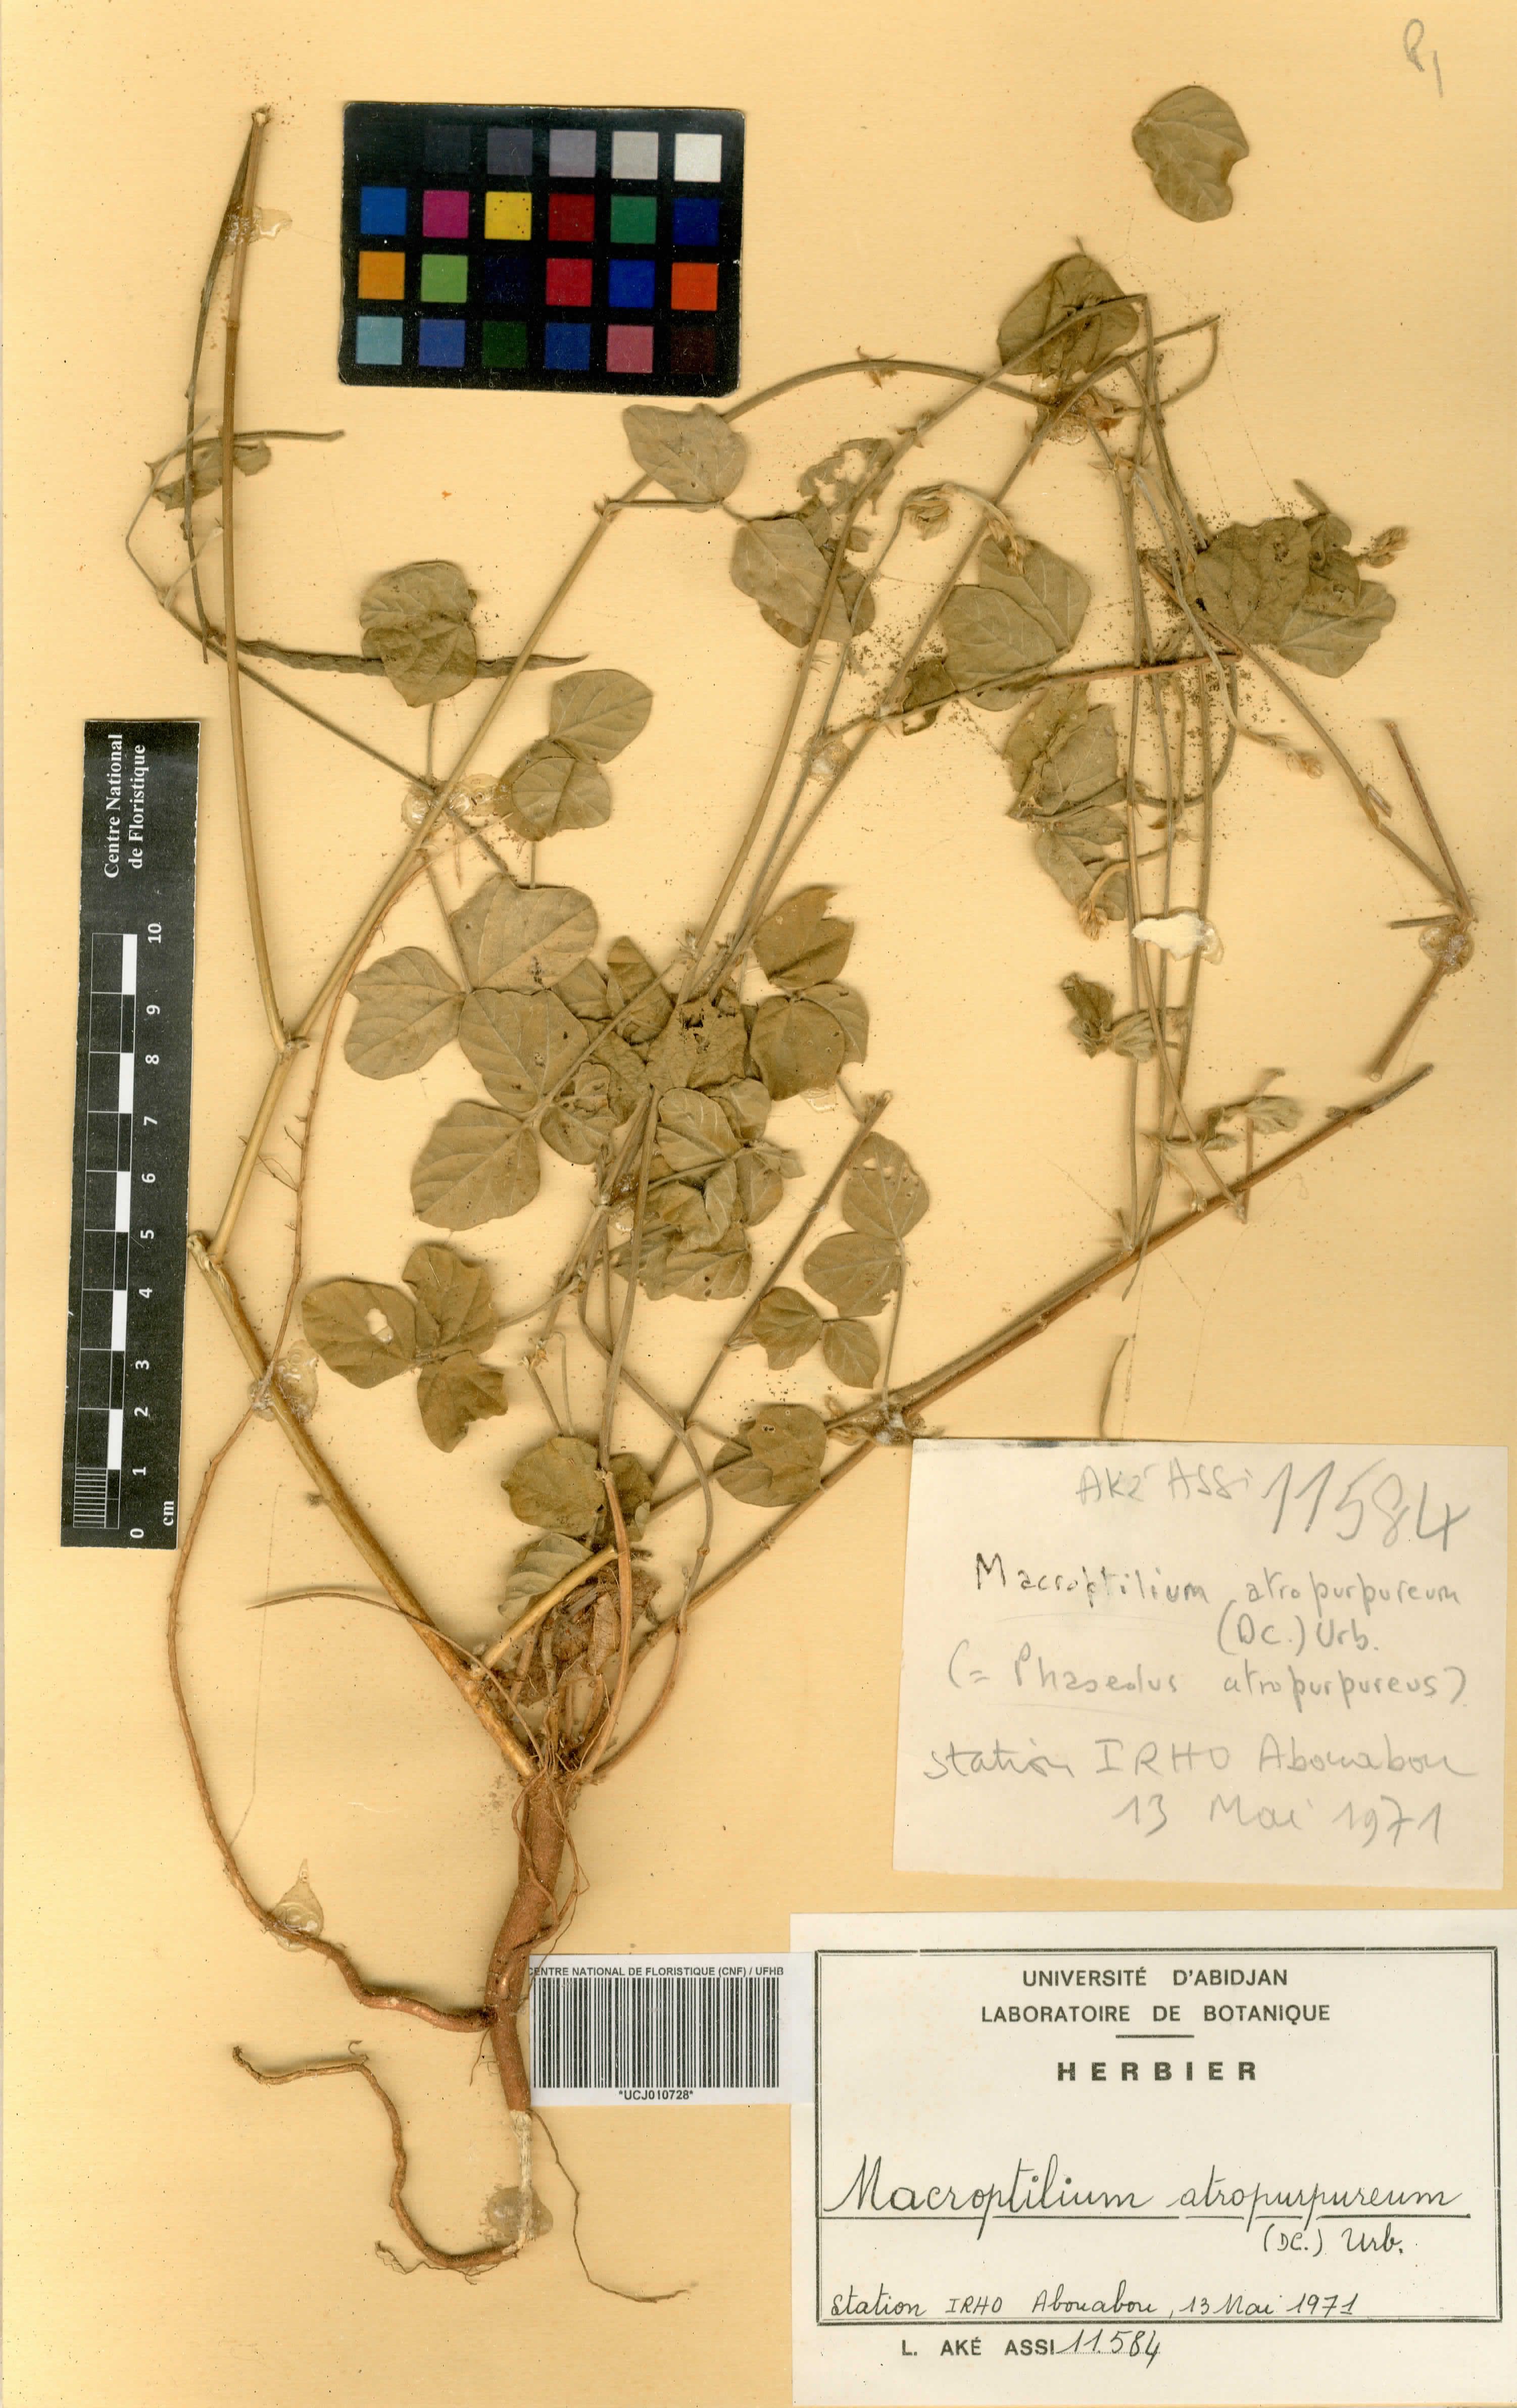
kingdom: Plantae
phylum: Tracheophyta
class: Magnoliopsida
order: Fabales
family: Fabaceae
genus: Macroptilium
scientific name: Macroptilium atropurpureum
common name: Purple bushbean
